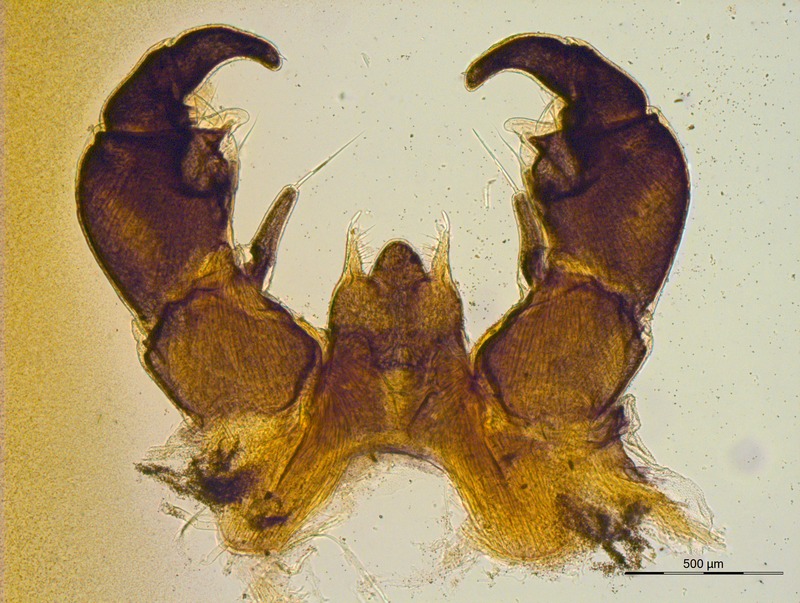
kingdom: Animalia
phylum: Arthropoda
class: Diplopoda
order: Glomerida
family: Glomeridae
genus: Glomeris
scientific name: Glomeris solis
